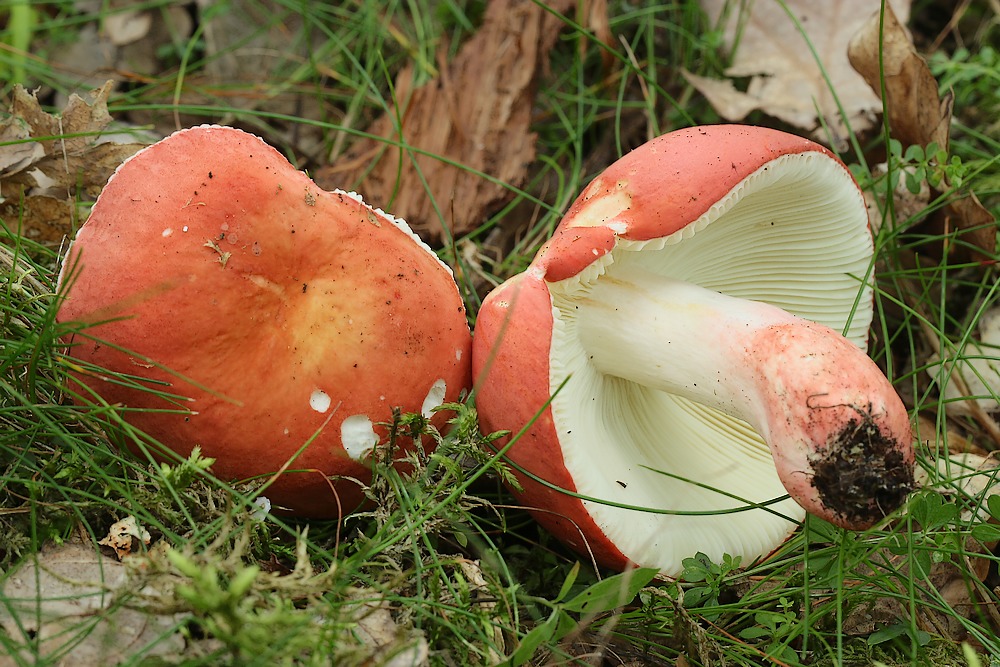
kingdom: Fungi
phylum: Basidiomycota
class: Agaricomycetes
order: Russulales
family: Russulaceae
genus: Russula
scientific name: Russula rosea
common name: fastkødet skørhat
